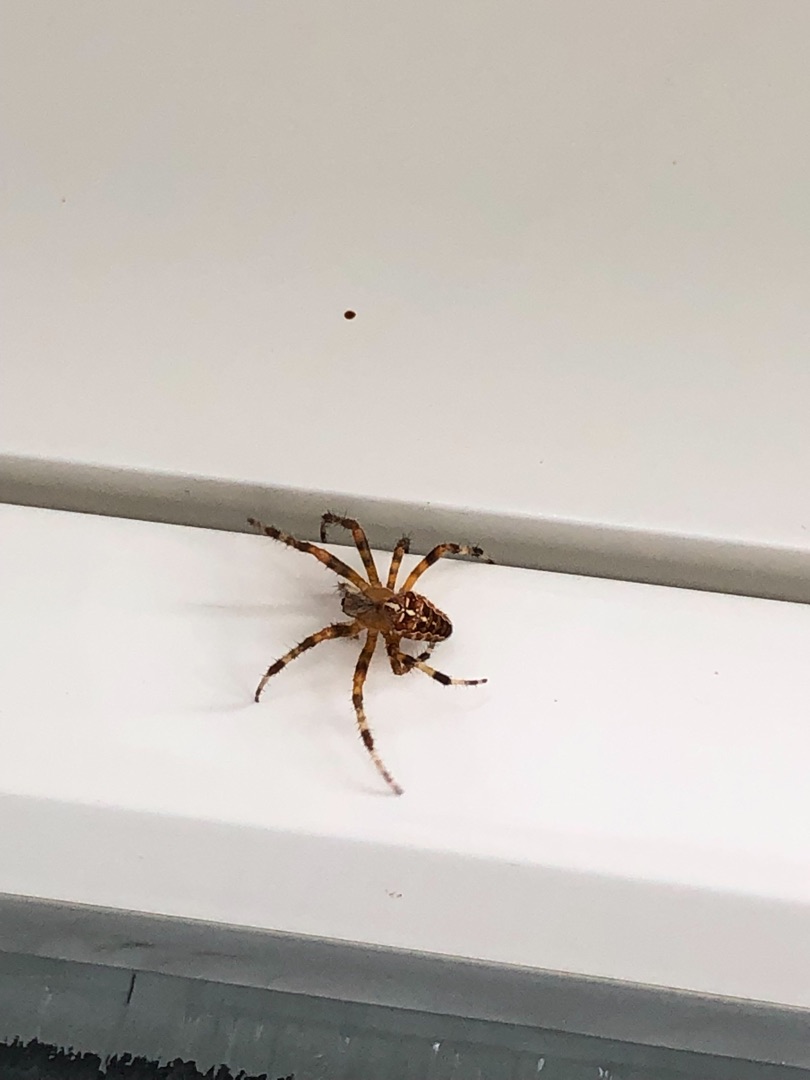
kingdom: Animalia
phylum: Arthropoda
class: Arachnida
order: Araneae
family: Araneidae
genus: Araneus
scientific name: Araneus diadematus
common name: Korsedderkop
